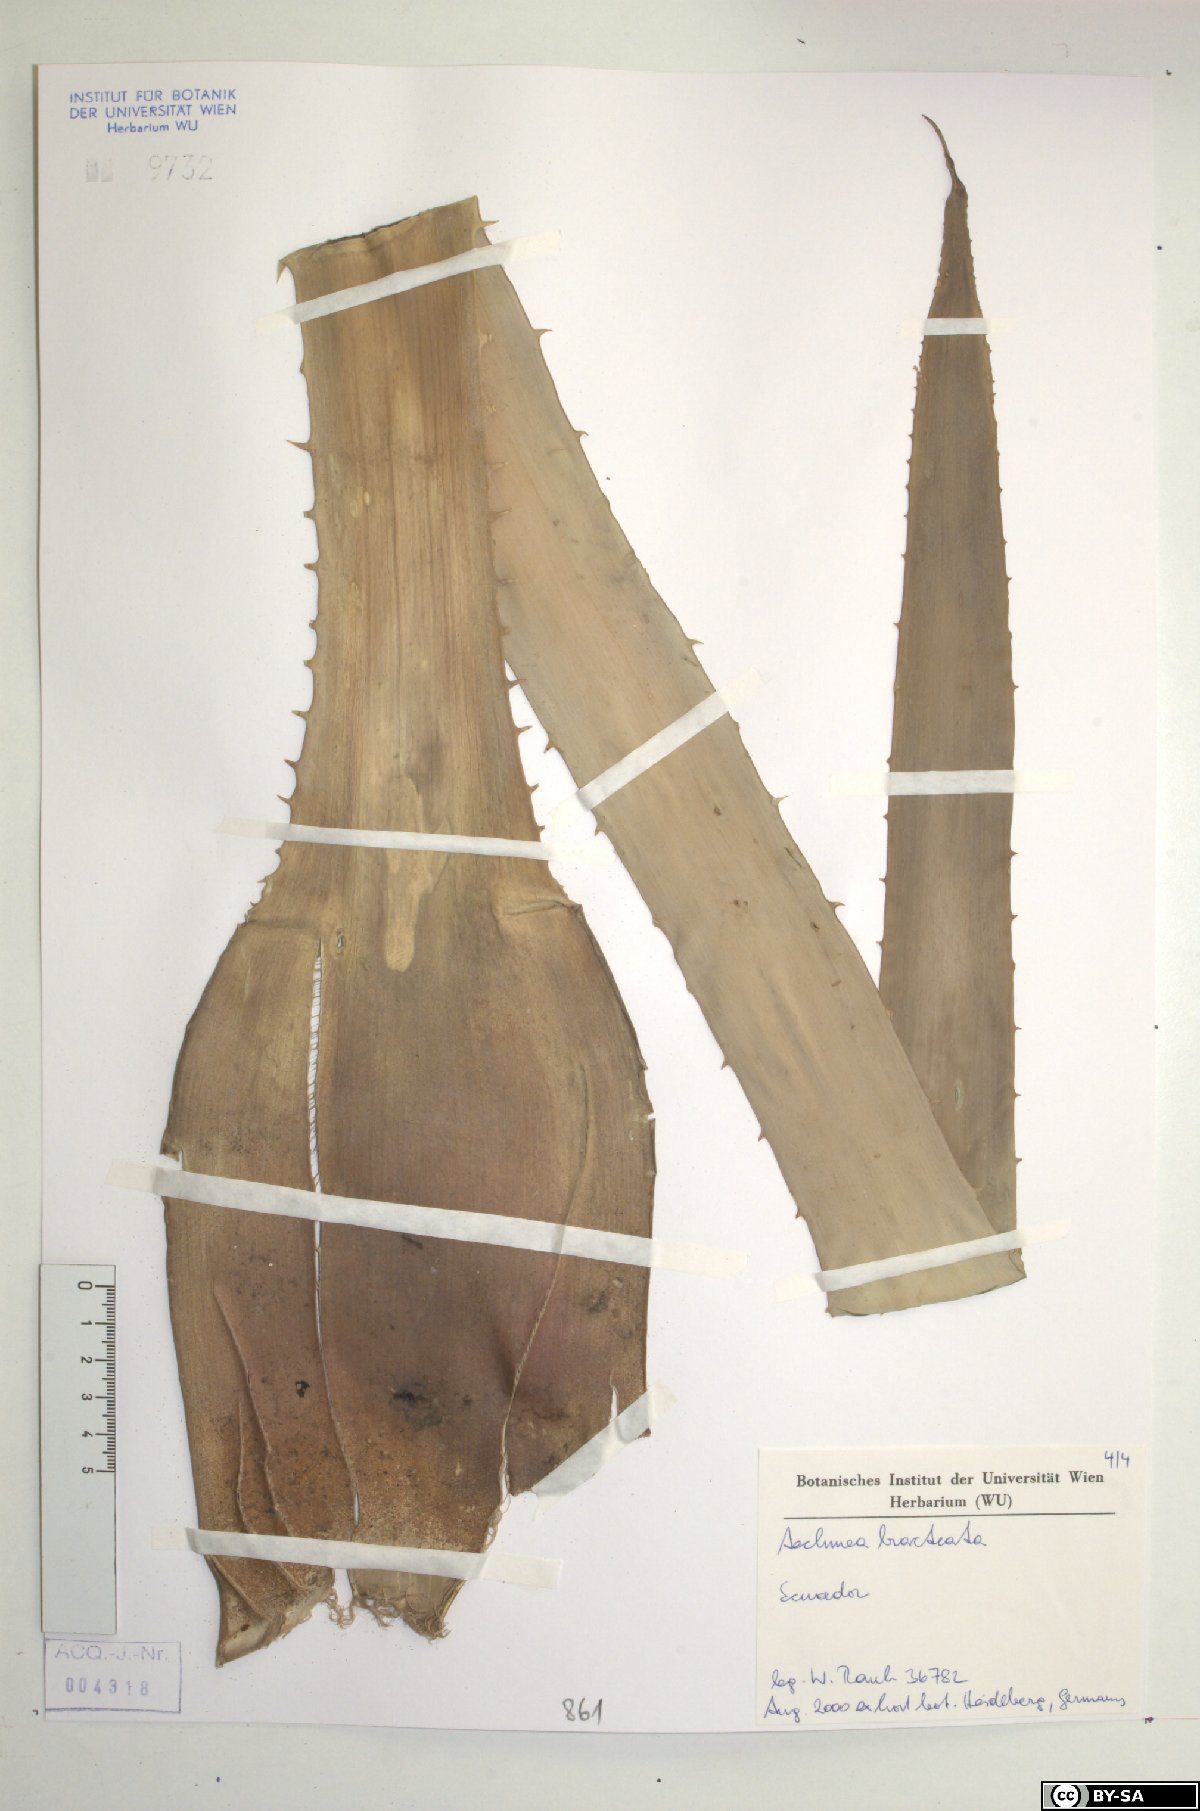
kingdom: Plantae
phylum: Tracheophyta
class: Liliopsida
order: Poales
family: Bromeliaceae
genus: Aechmea
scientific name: Aechmea bracteata
